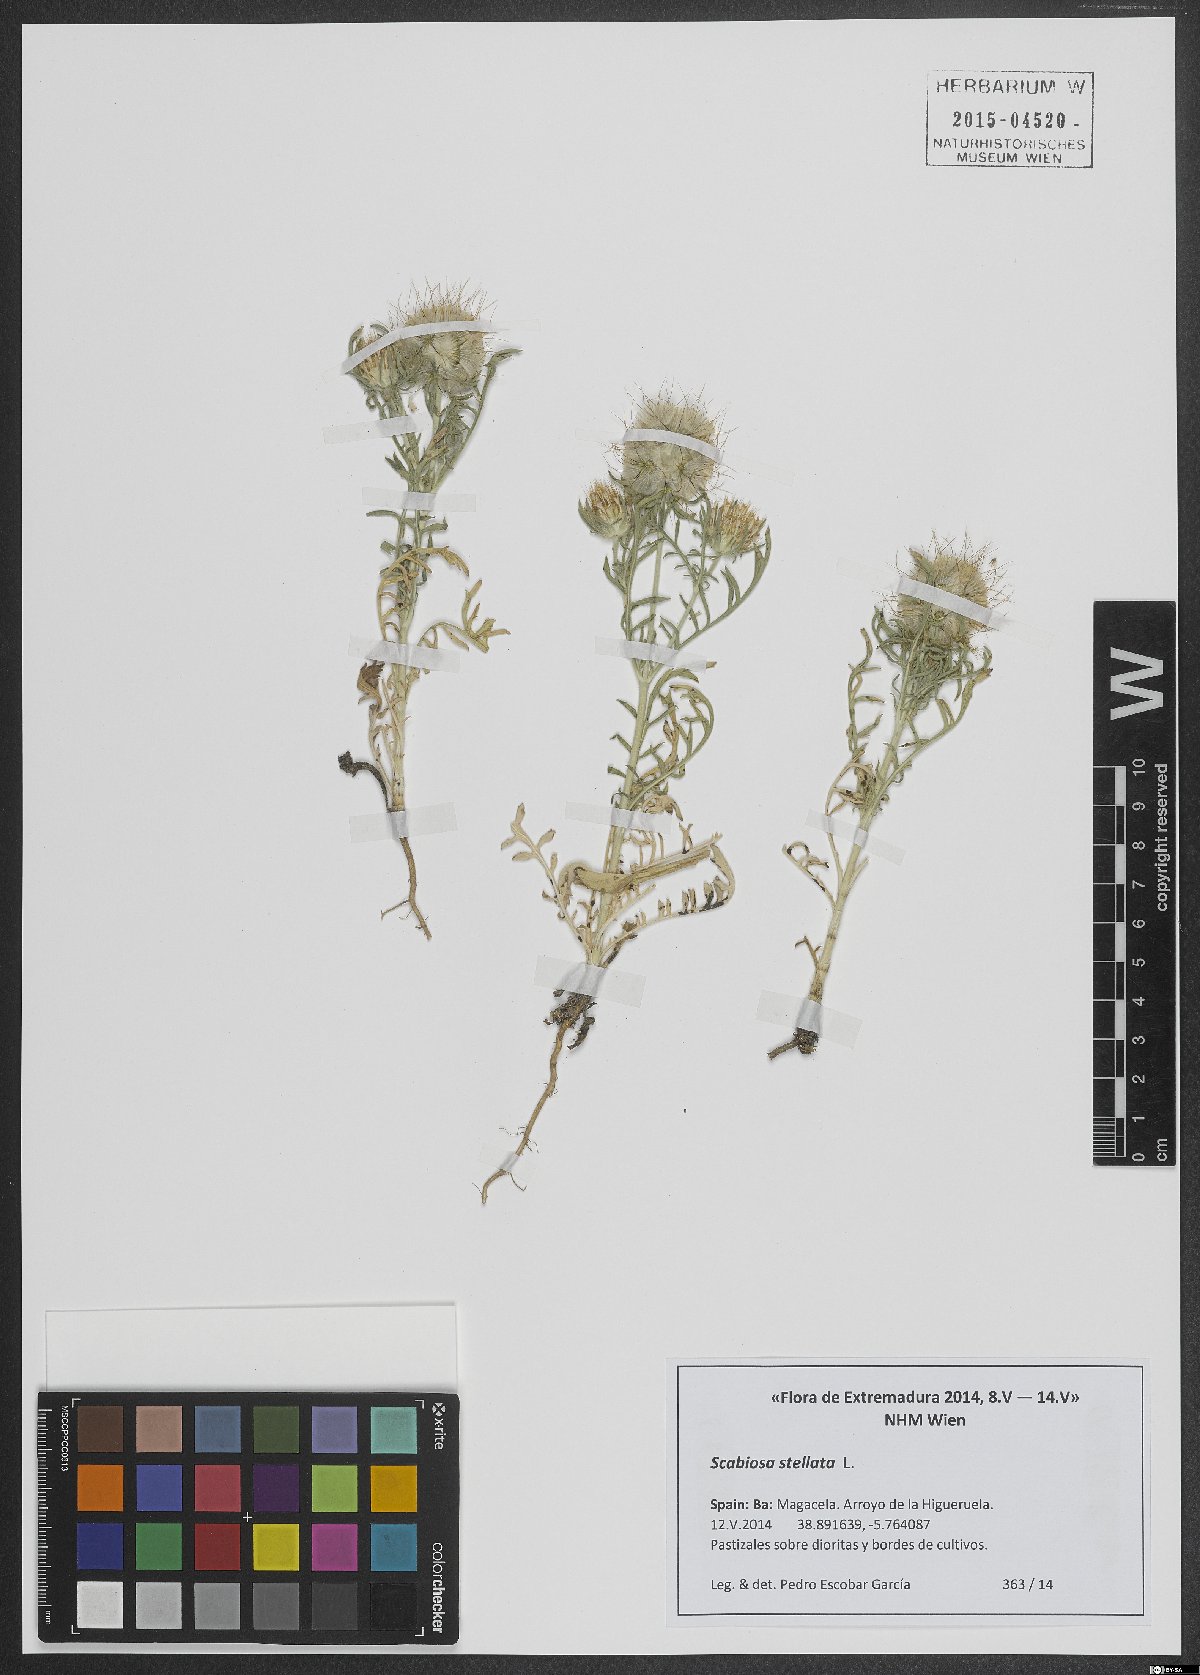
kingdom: Plantae
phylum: Tracheophyta
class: Magnoliopsida
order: Dipsacales
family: Caprifoliaceae
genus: Lomelosia
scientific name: Lomelosia stellata
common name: Teasel
